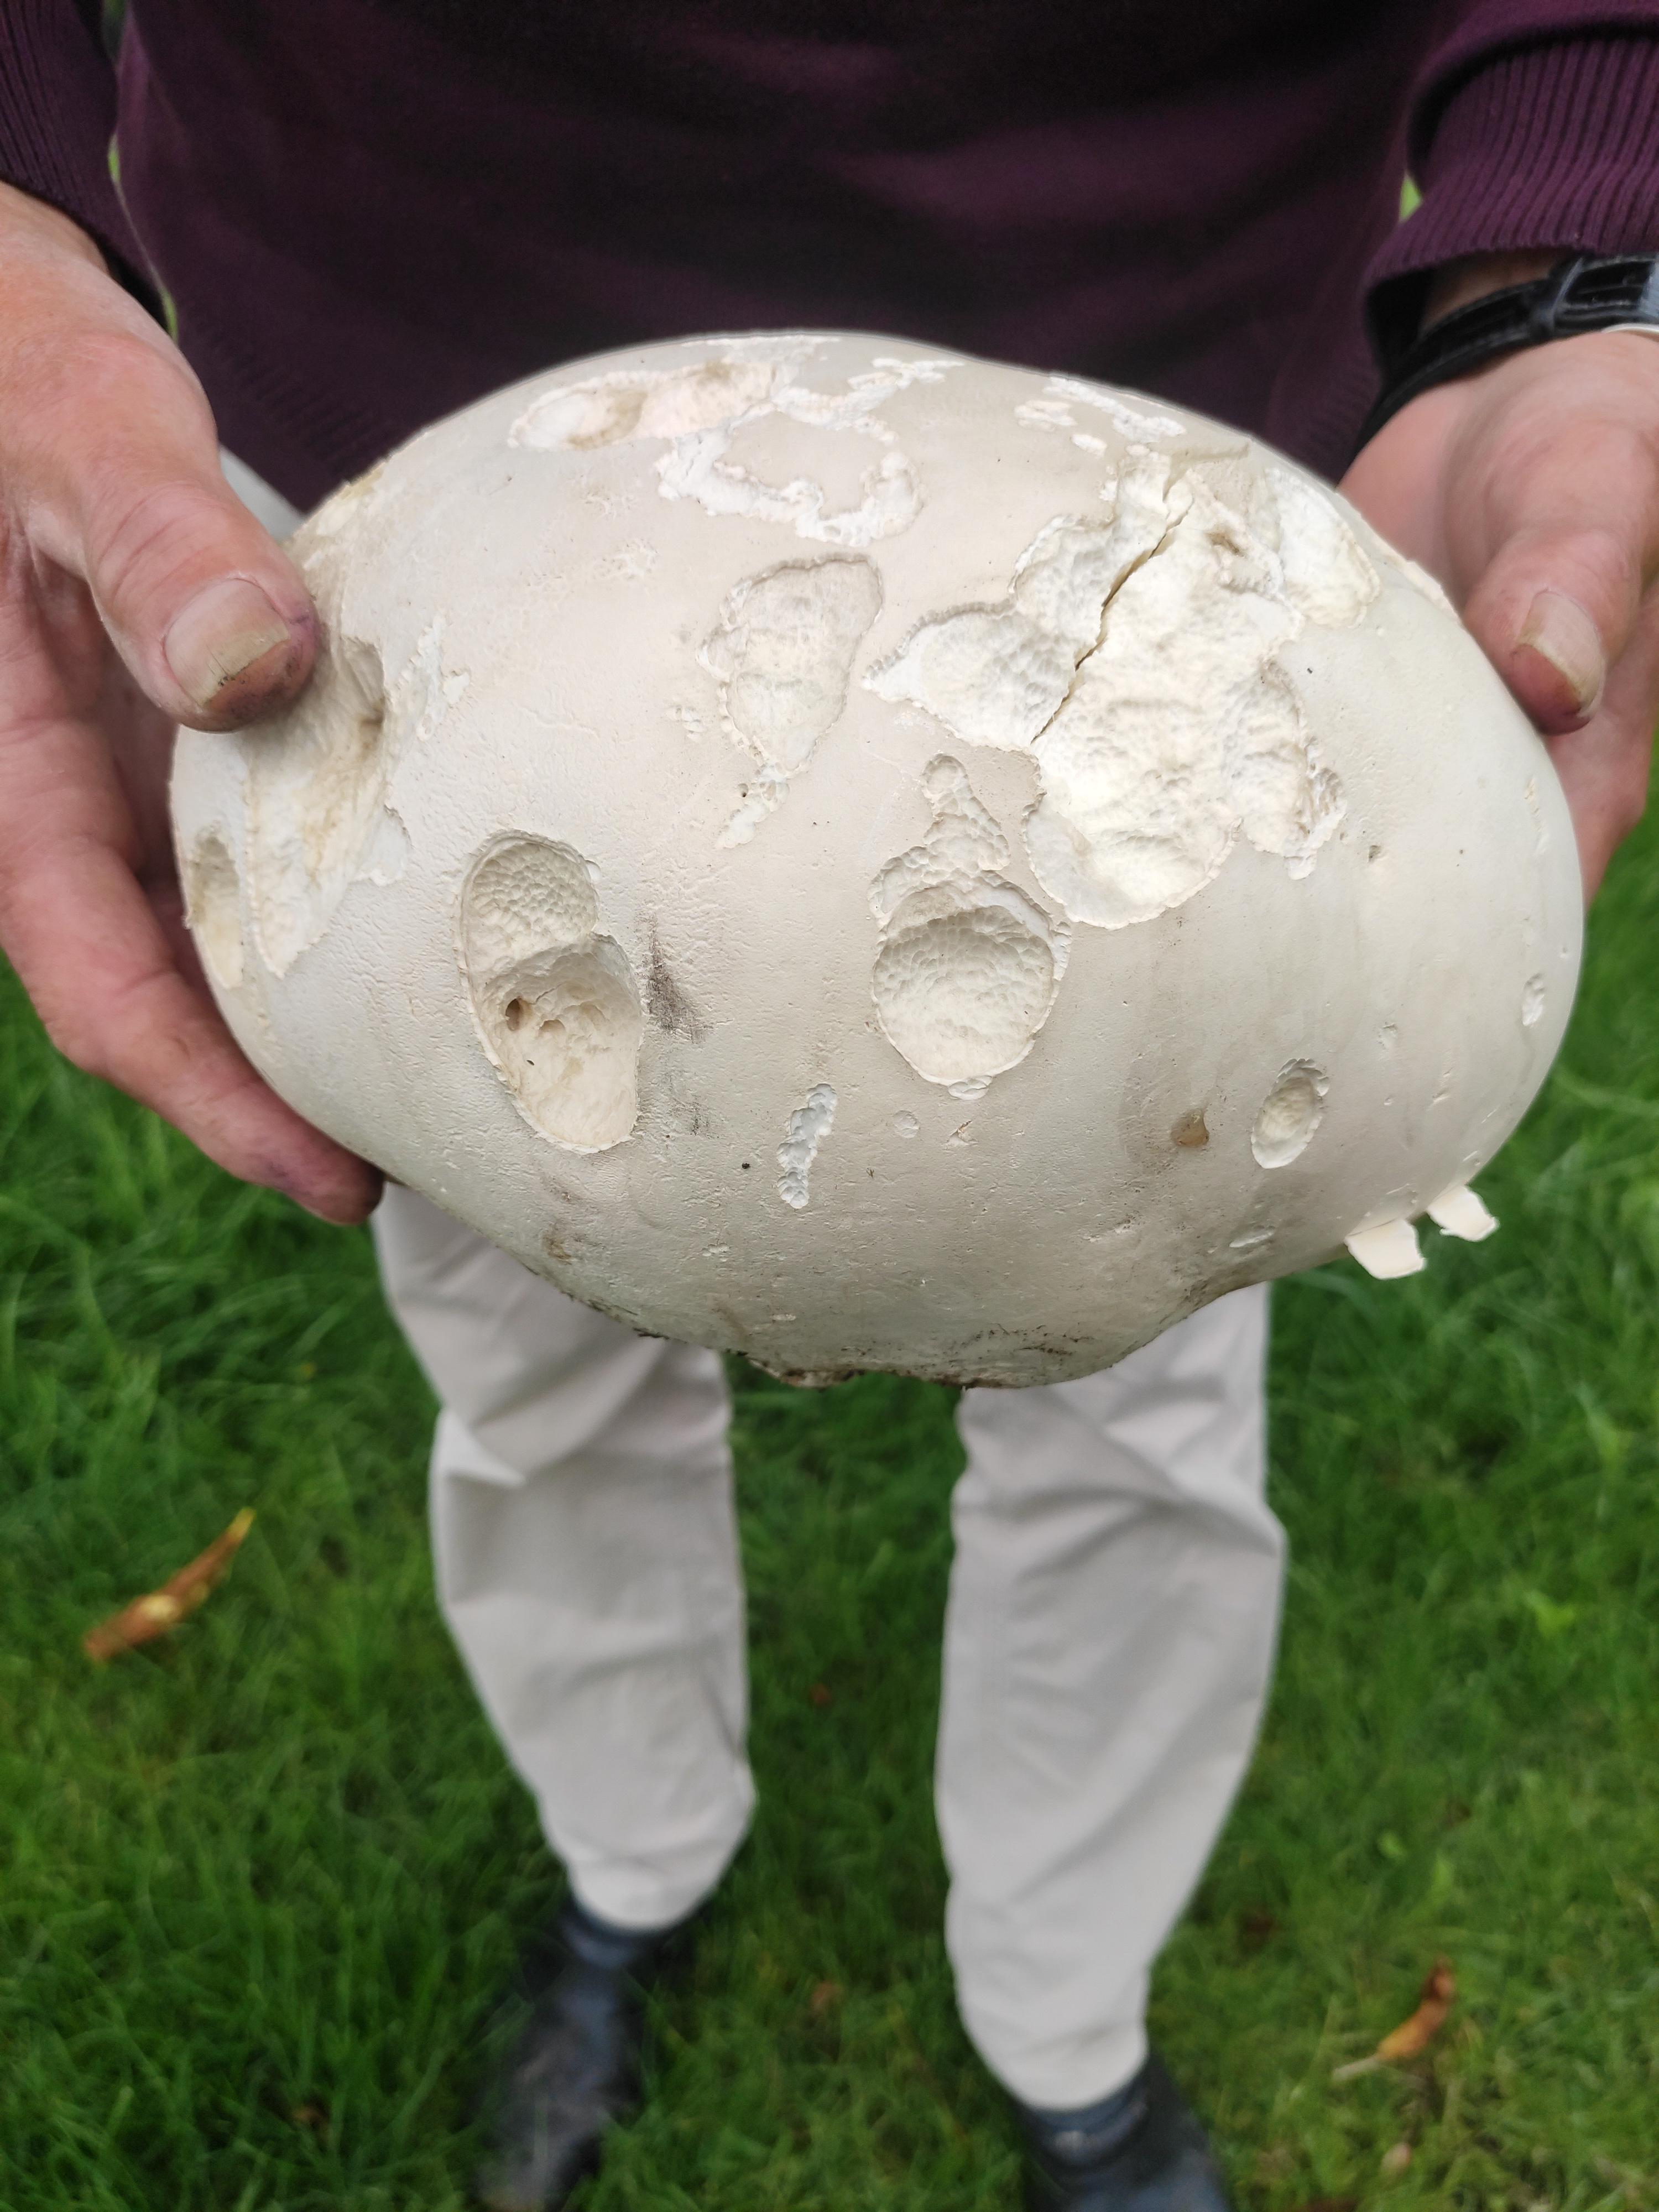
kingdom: Fungi
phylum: Basidiomycota
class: Agaricomycetes
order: Agaricales
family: Lycoperdaceae
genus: Calvatia
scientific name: Calvatia gigantea
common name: kæmpestøvbold
